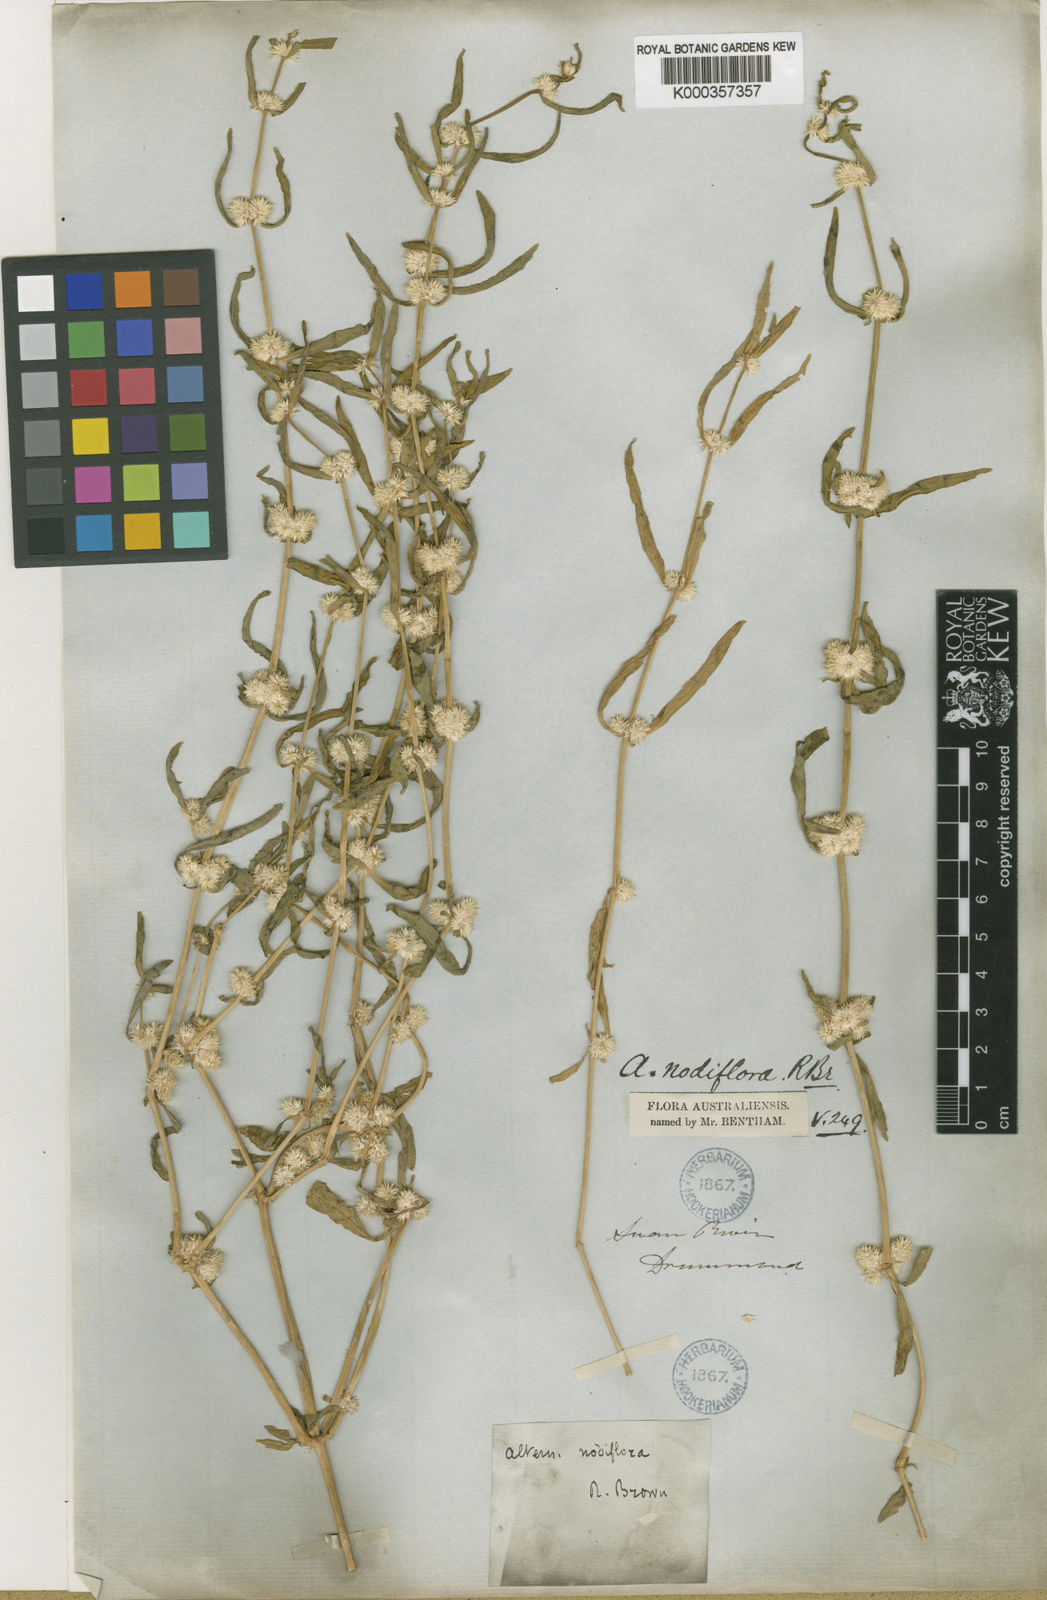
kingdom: Plantae
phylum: Tracheophyta
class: Magnoliopsida
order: Caryophyllales
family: Amaranthaceae
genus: Alternanthera
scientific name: Alternanthera sessilis
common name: Sessile joyweed
